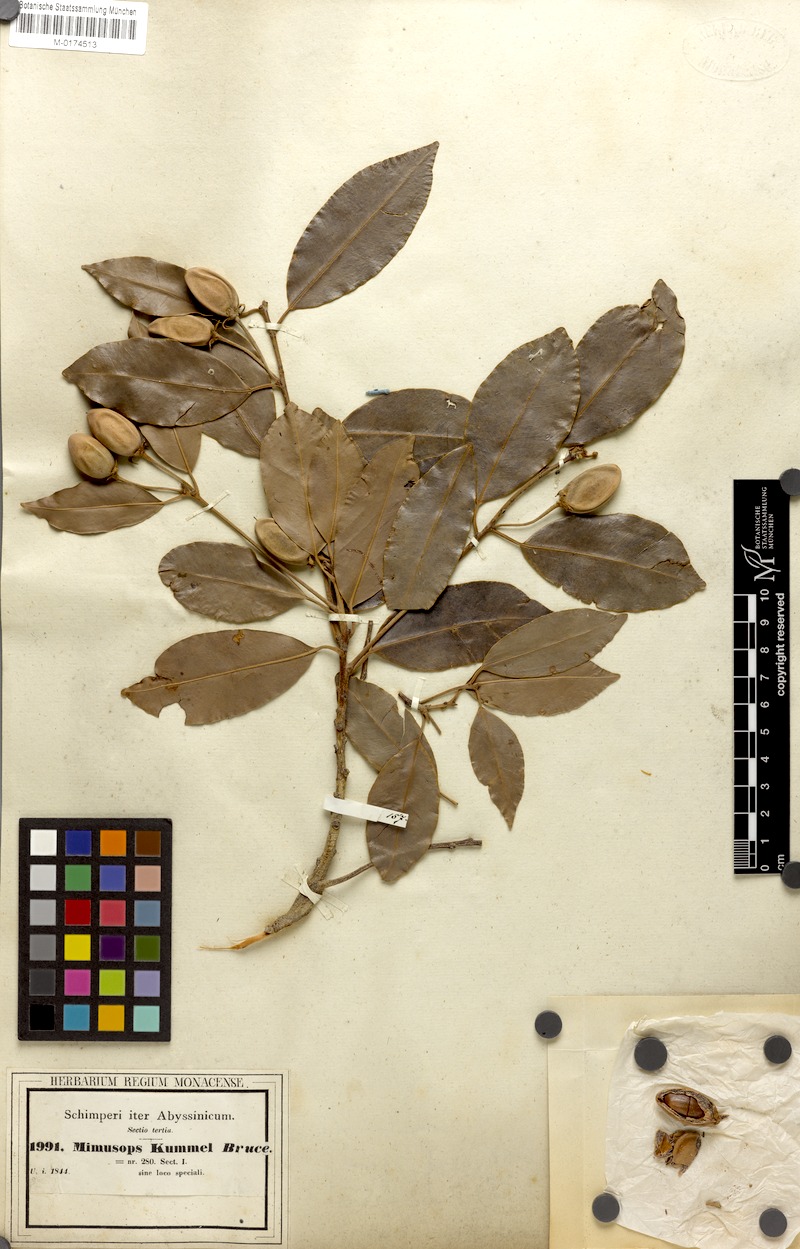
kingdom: Plantae
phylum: Tracheophyta
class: Magnoliopsida
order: Ericales
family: Sapotaceae
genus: Mimusops
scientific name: Mimusops kummel
